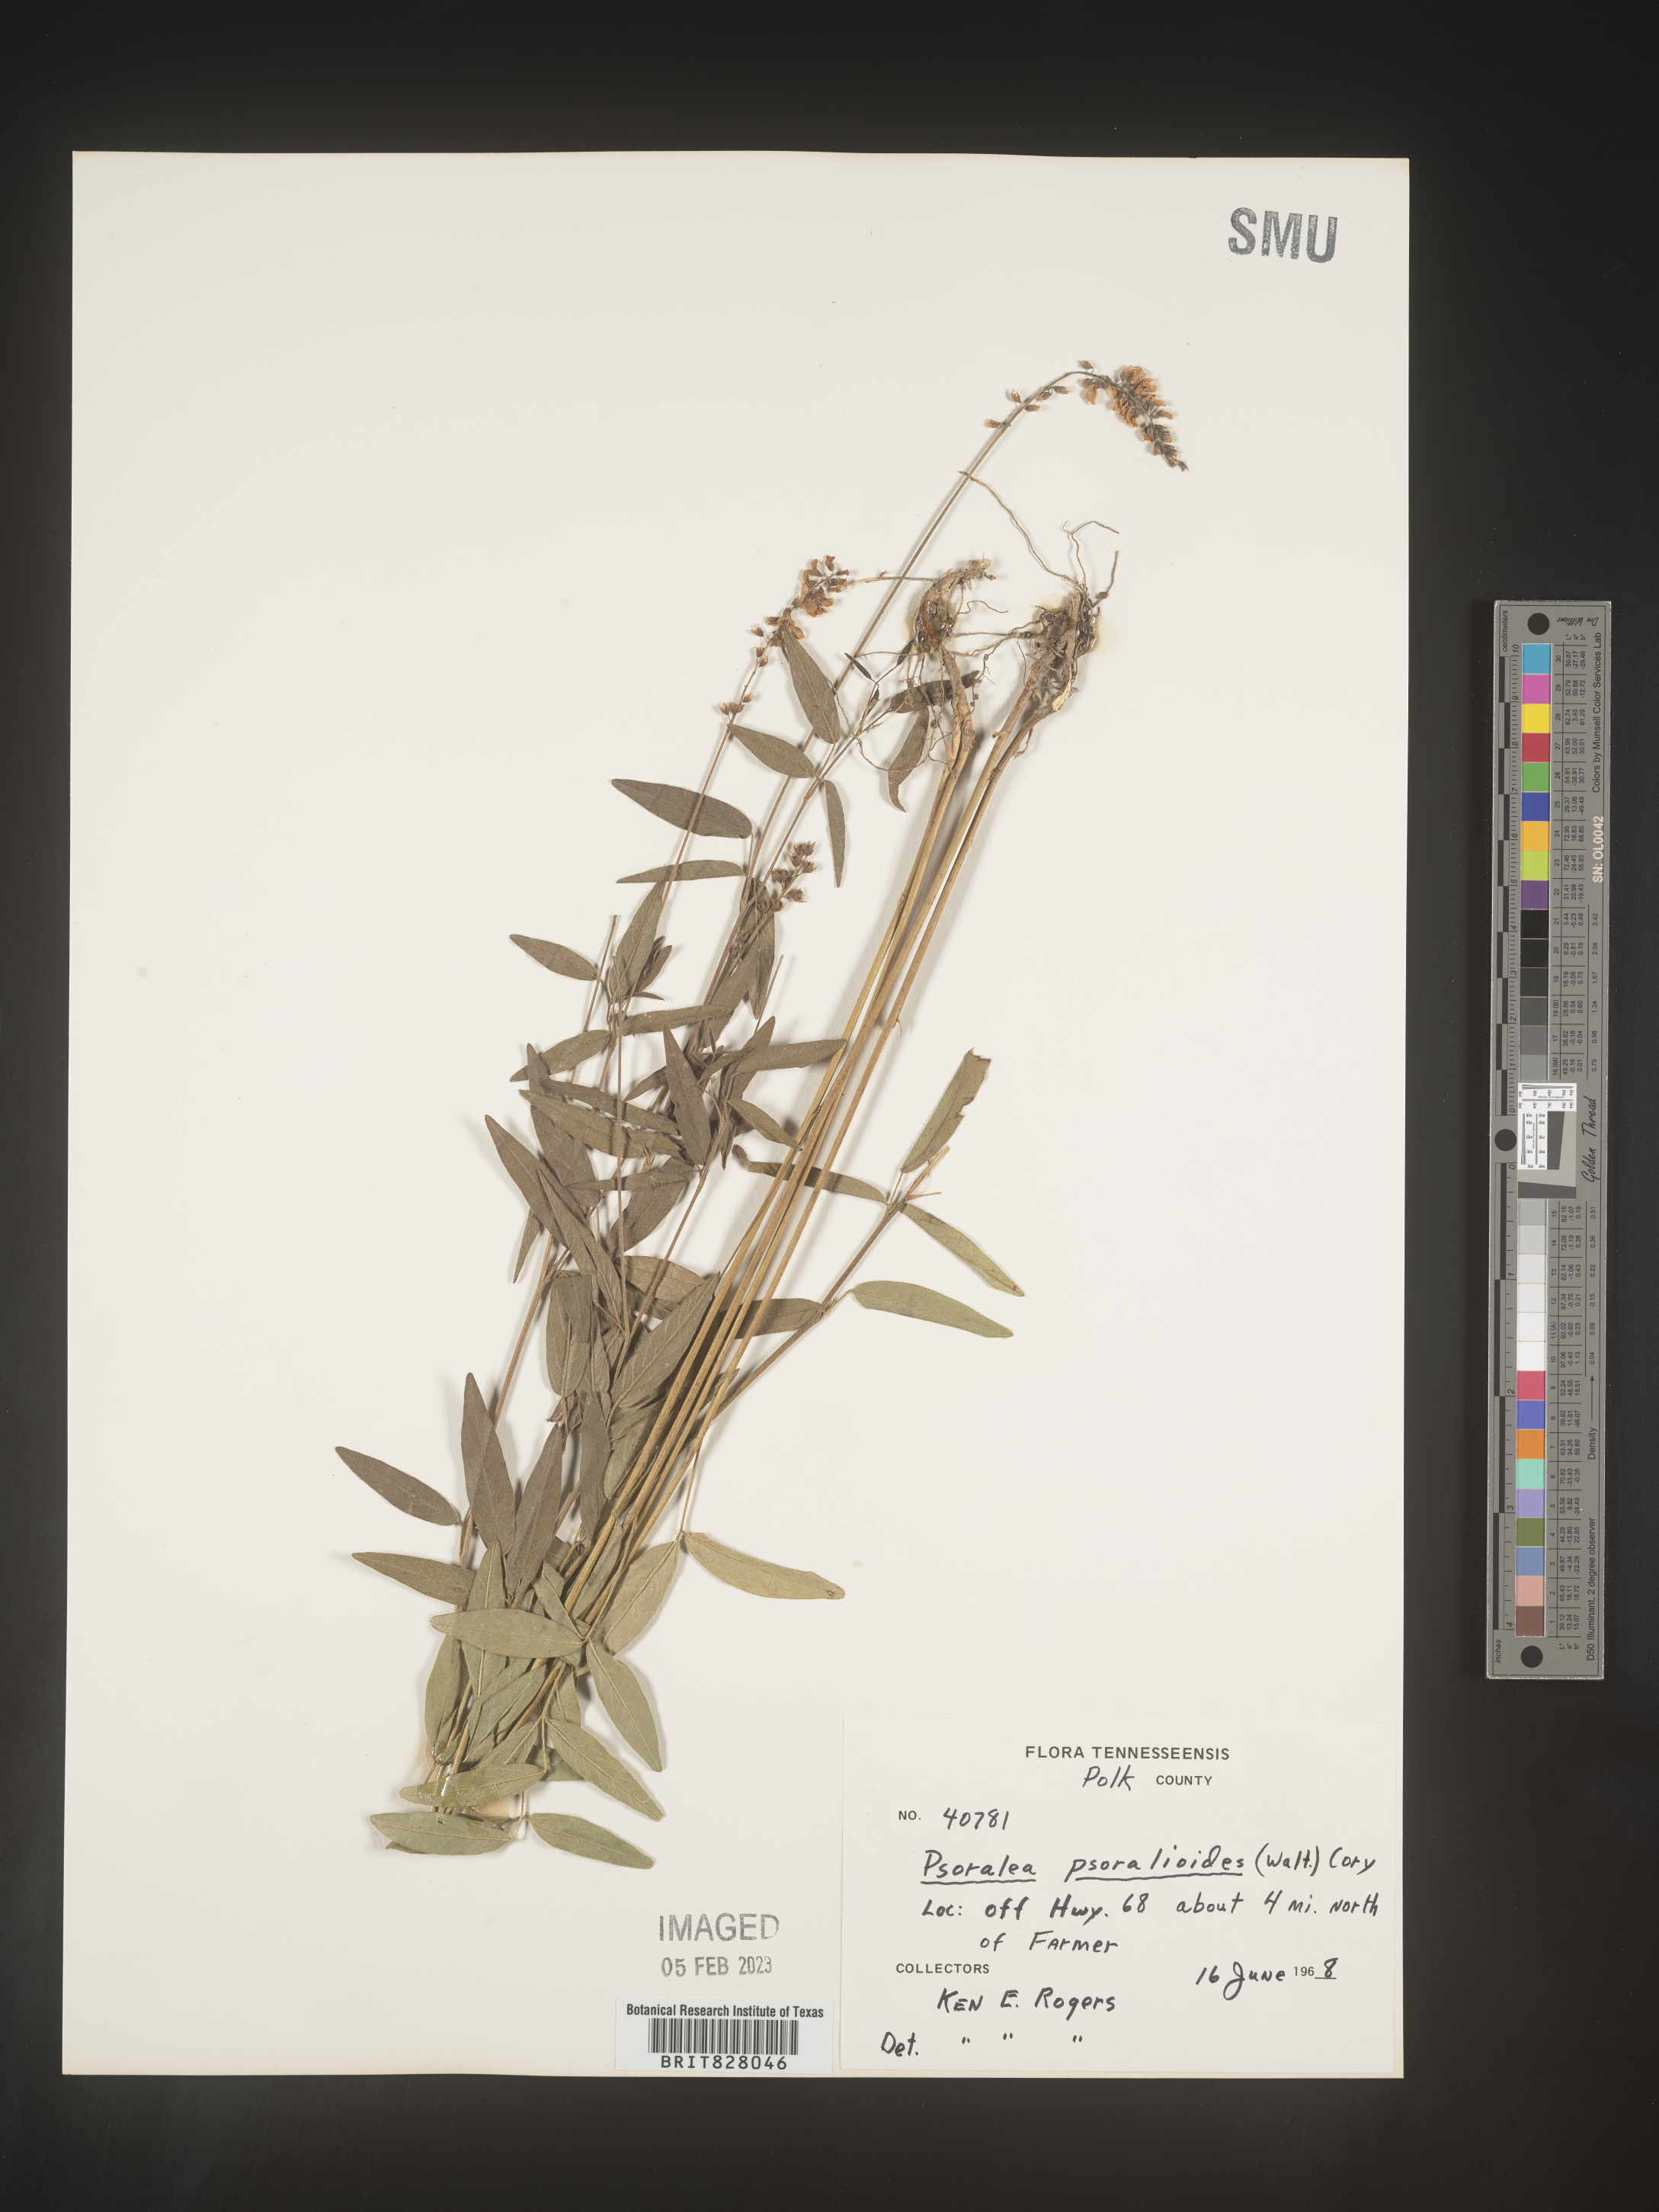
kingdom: Plantae
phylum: Tracheophyta
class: Magnoliopsida
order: Fabales
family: Fabaceae
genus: Orbexilum
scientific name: Orbexilum pedunculatum
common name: Sampson's snakeroot
